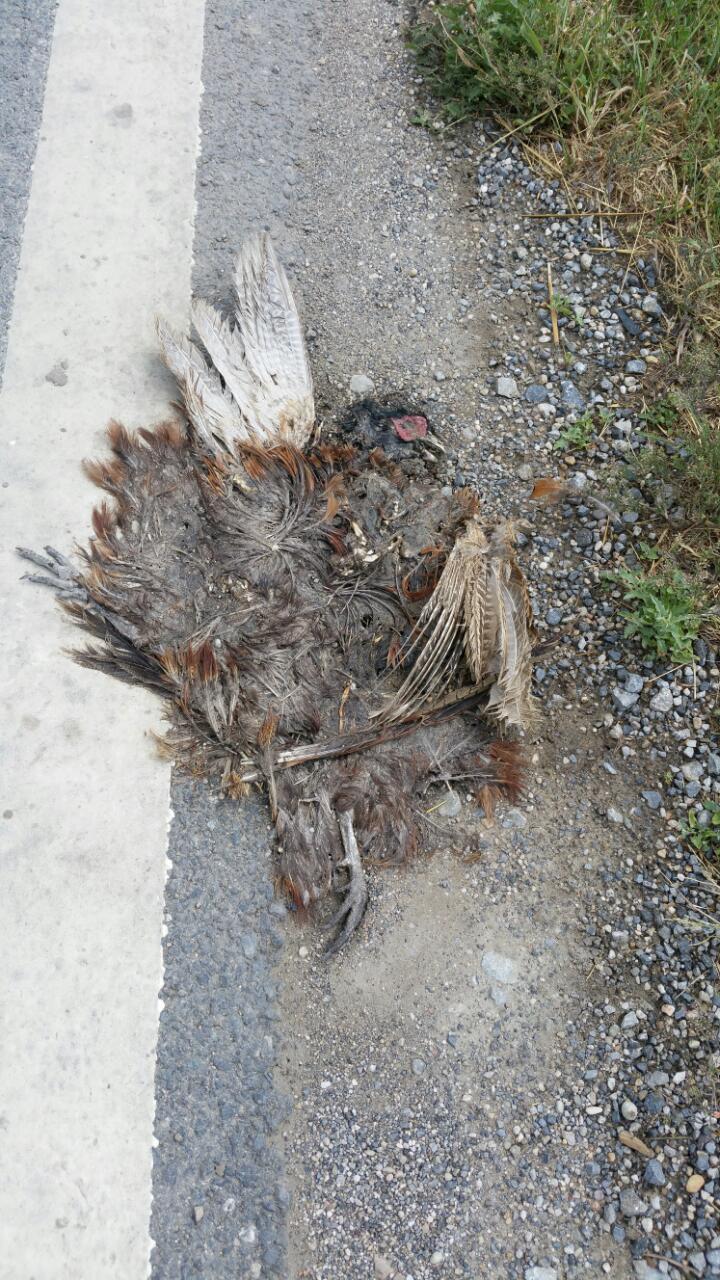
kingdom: Animalia
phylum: Chordata
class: Aves
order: Galliformes
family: Phasianidae
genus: Phasianus
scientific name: Phasianus colchicus
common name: Common pheasant
